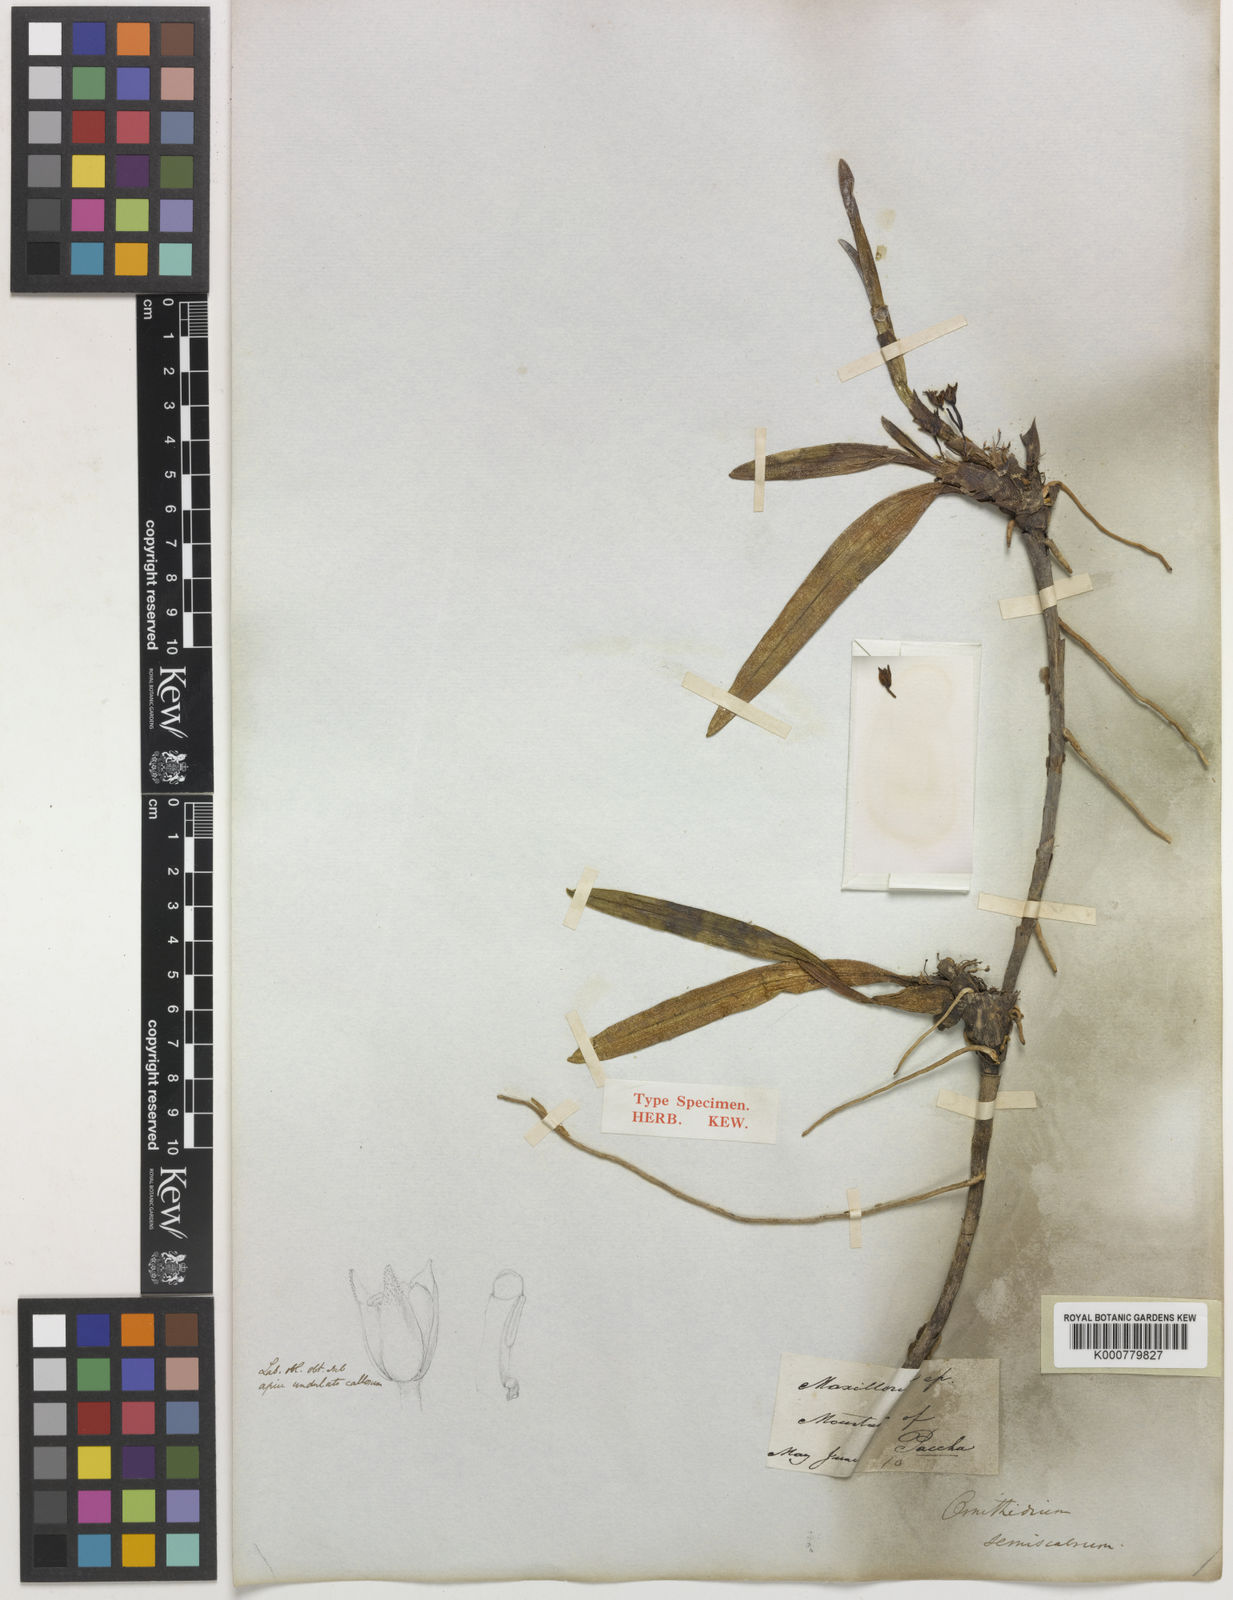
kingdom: Plantae
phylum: Tracheophyta
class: Liliopsida
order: Asparagales
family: Orchidaceae
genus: Maxillaria
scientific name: Maxillaria semiscabra
